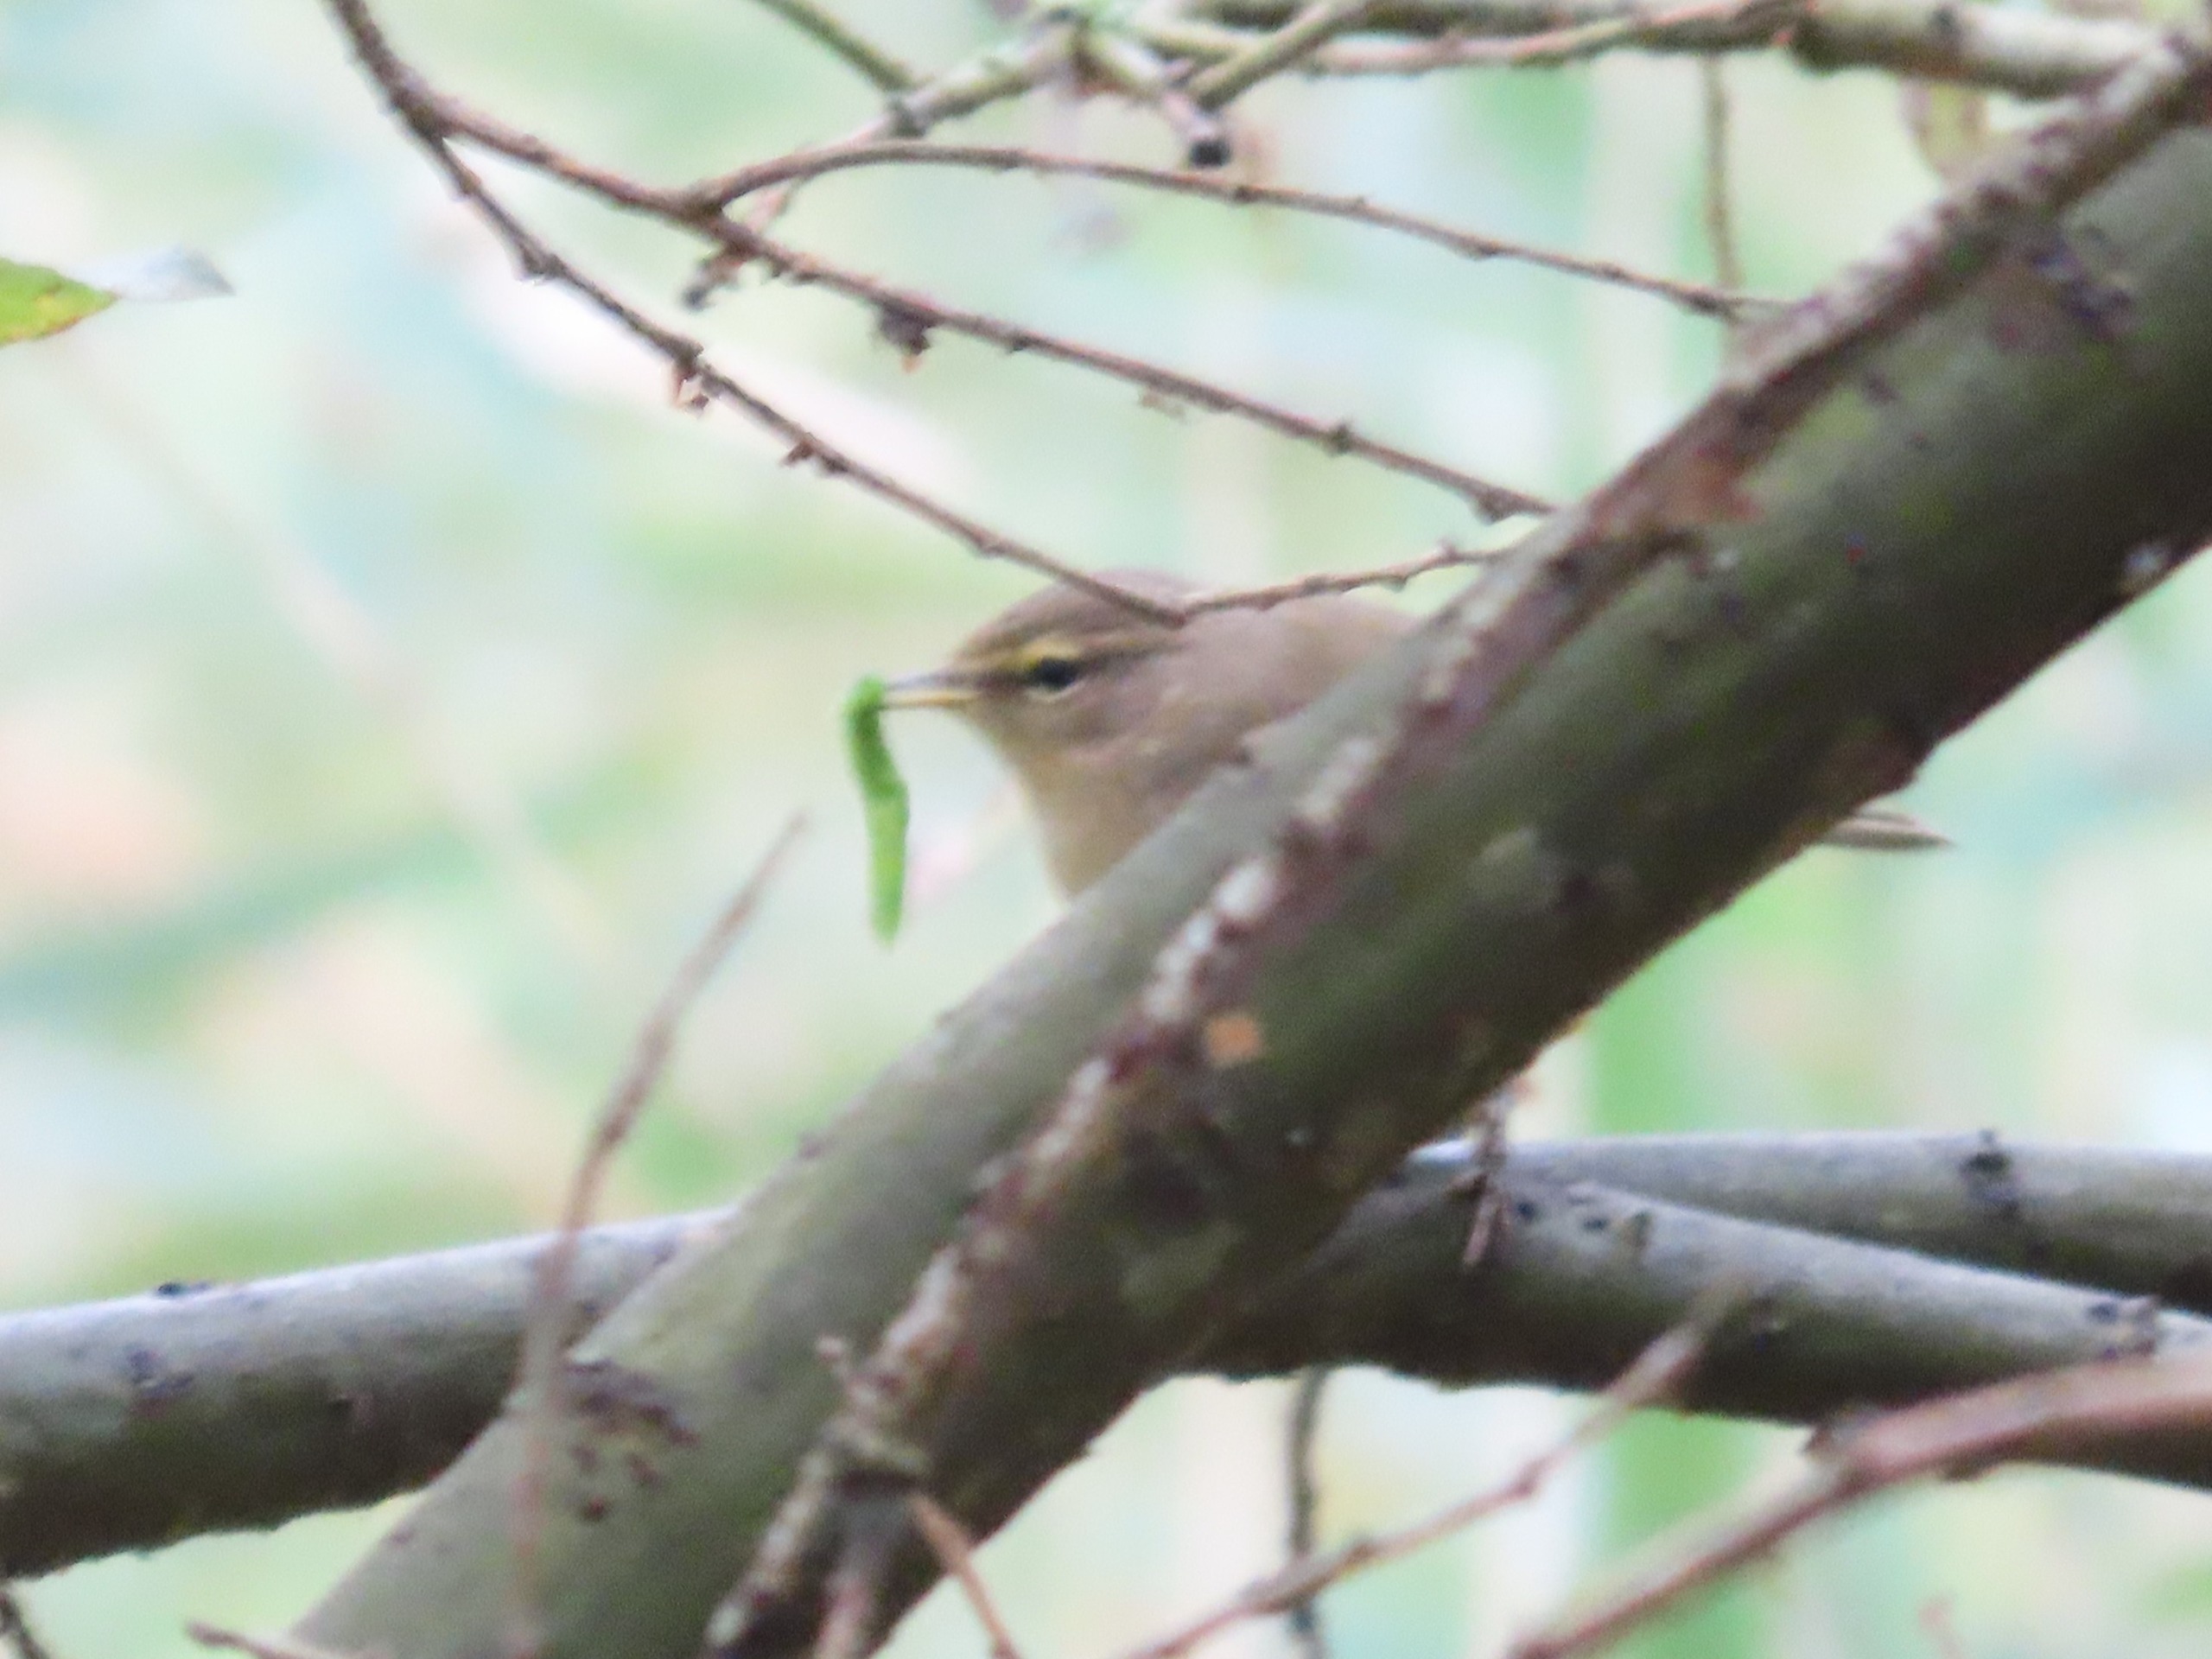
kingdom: Animalia
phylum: Chordata
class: Aves
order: Passeriformes
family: Phylloscopidae
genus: Phylloscopus
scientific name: Phylloscopus collybita
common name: Gransanger
